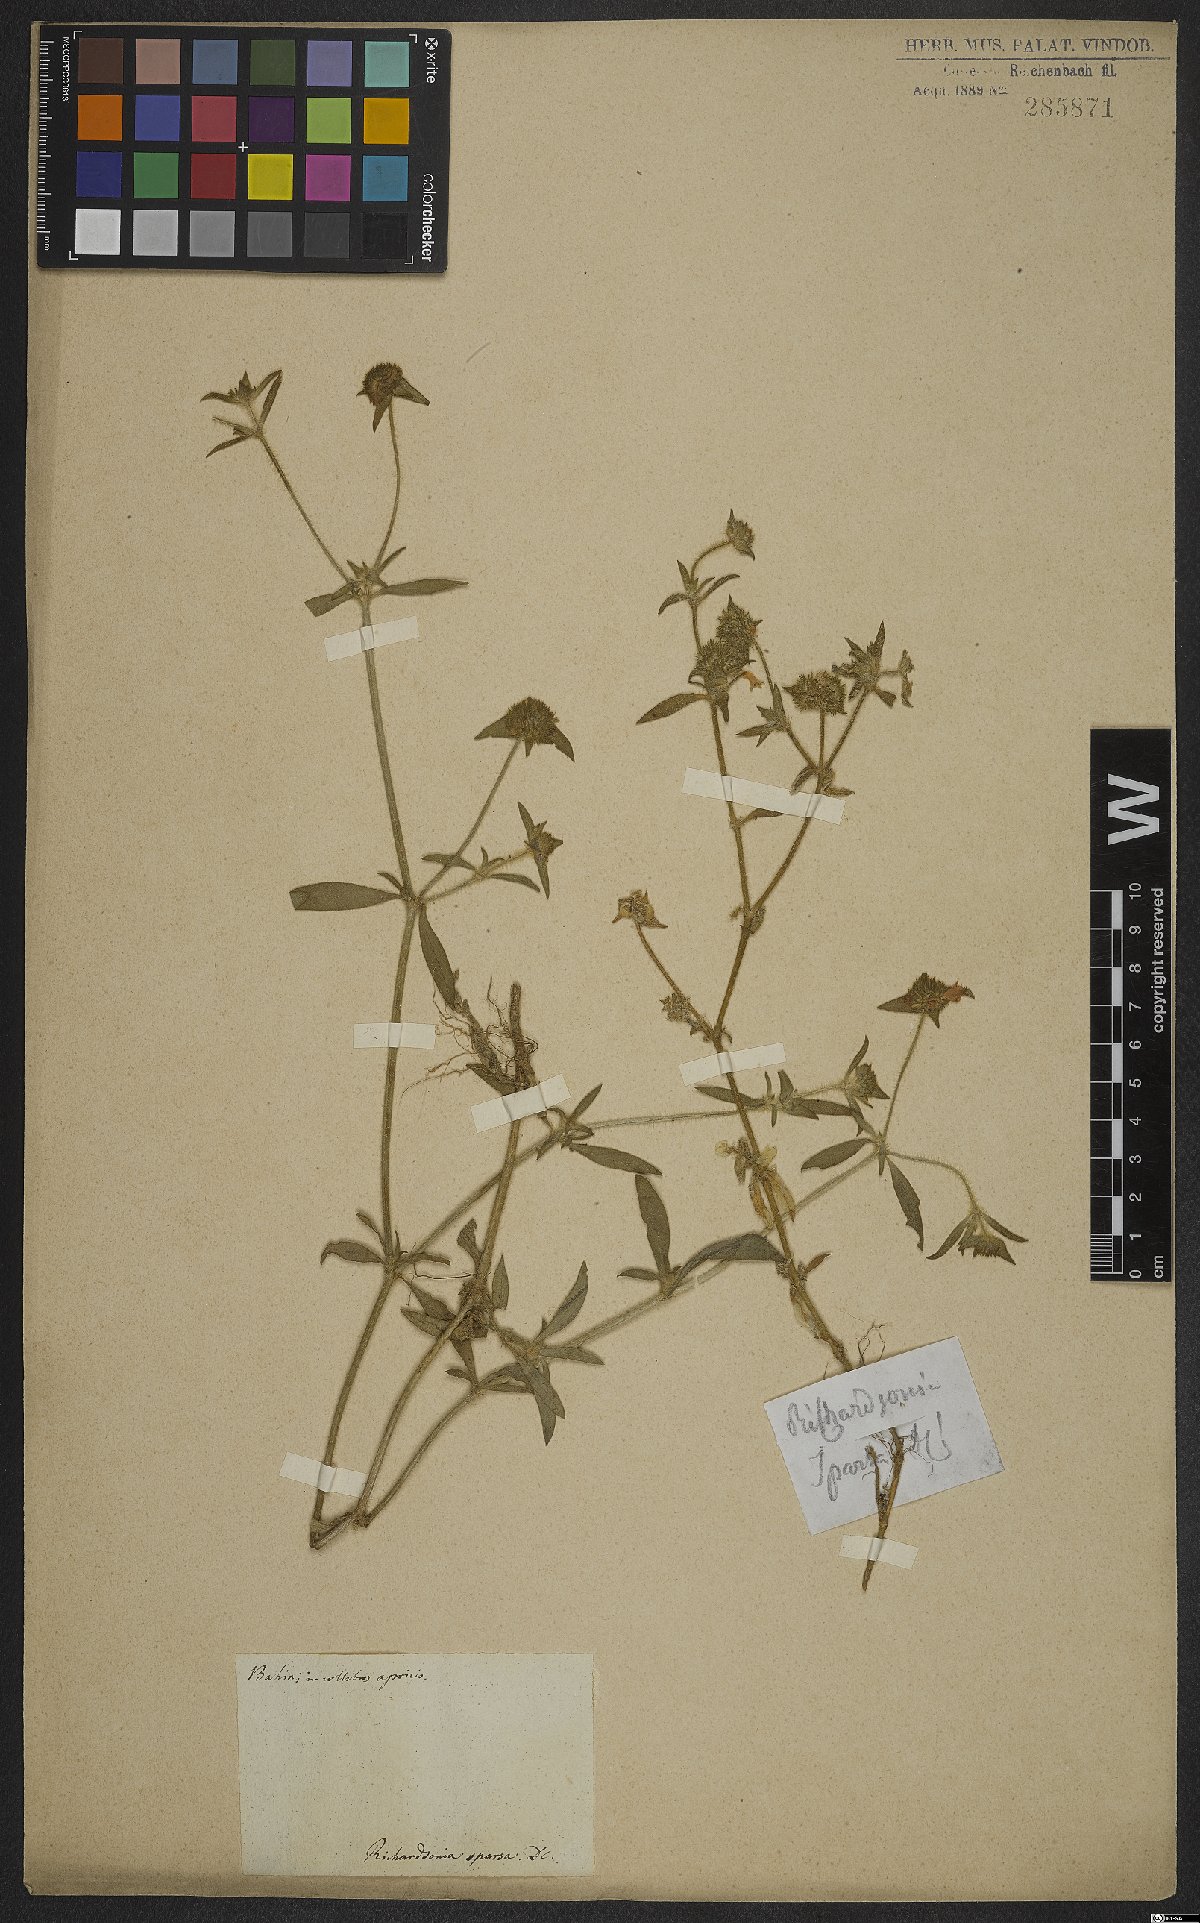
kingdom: Plantae
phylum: Tracheophyta
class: Magnoliopsida
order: Gentianales
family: Rubiaceae
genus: Richardia
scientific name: Richardia grandiflora
